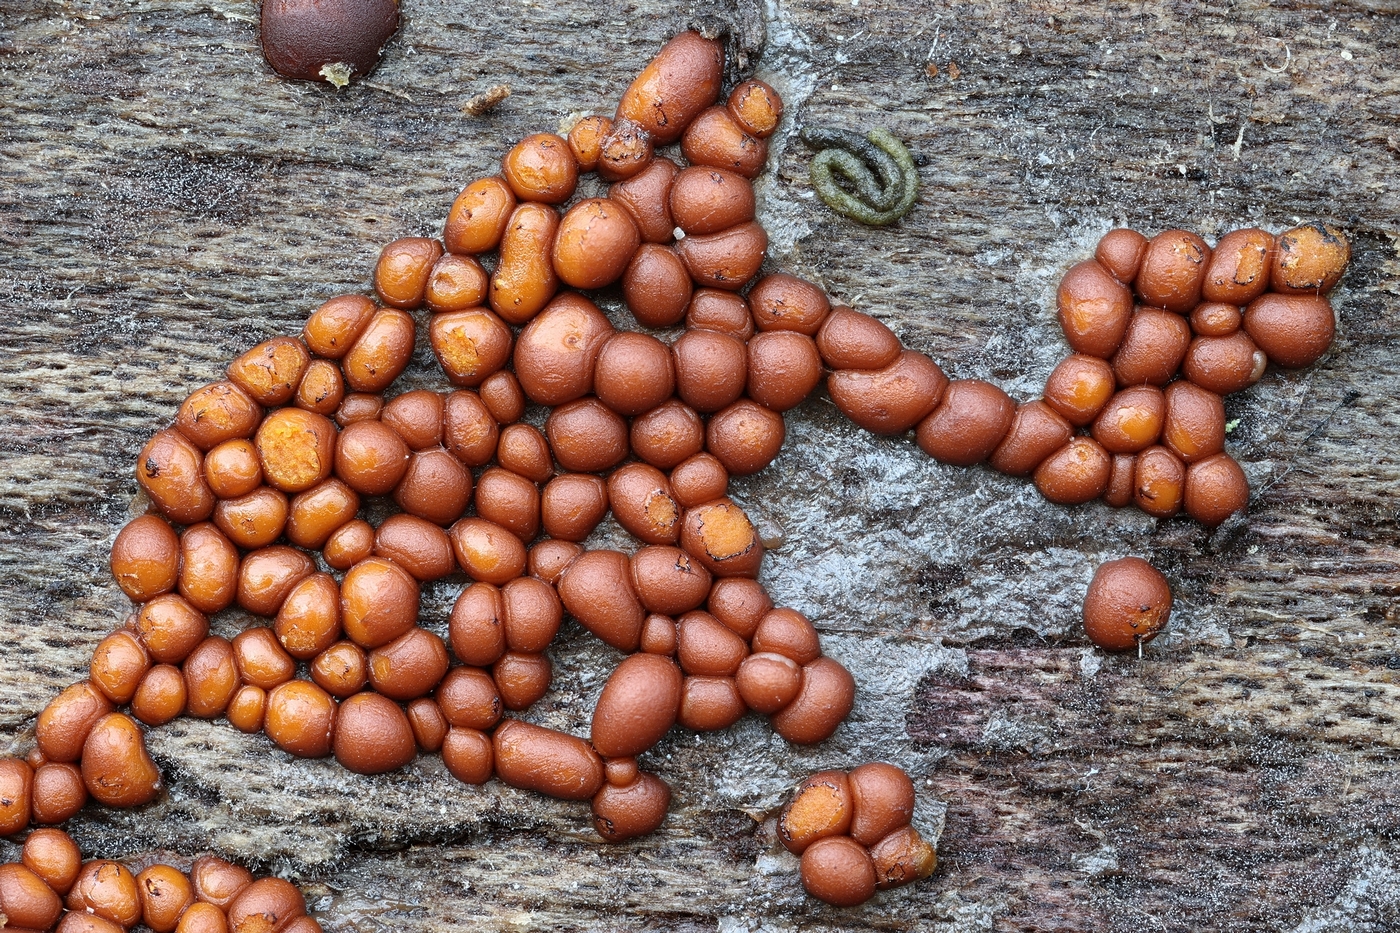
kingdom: Protozoa
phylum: Mycetozoa
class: Myxomycetes
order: Trichiales
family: Trichiaceae
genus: Perichaena
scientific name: Perichaena corticalis
